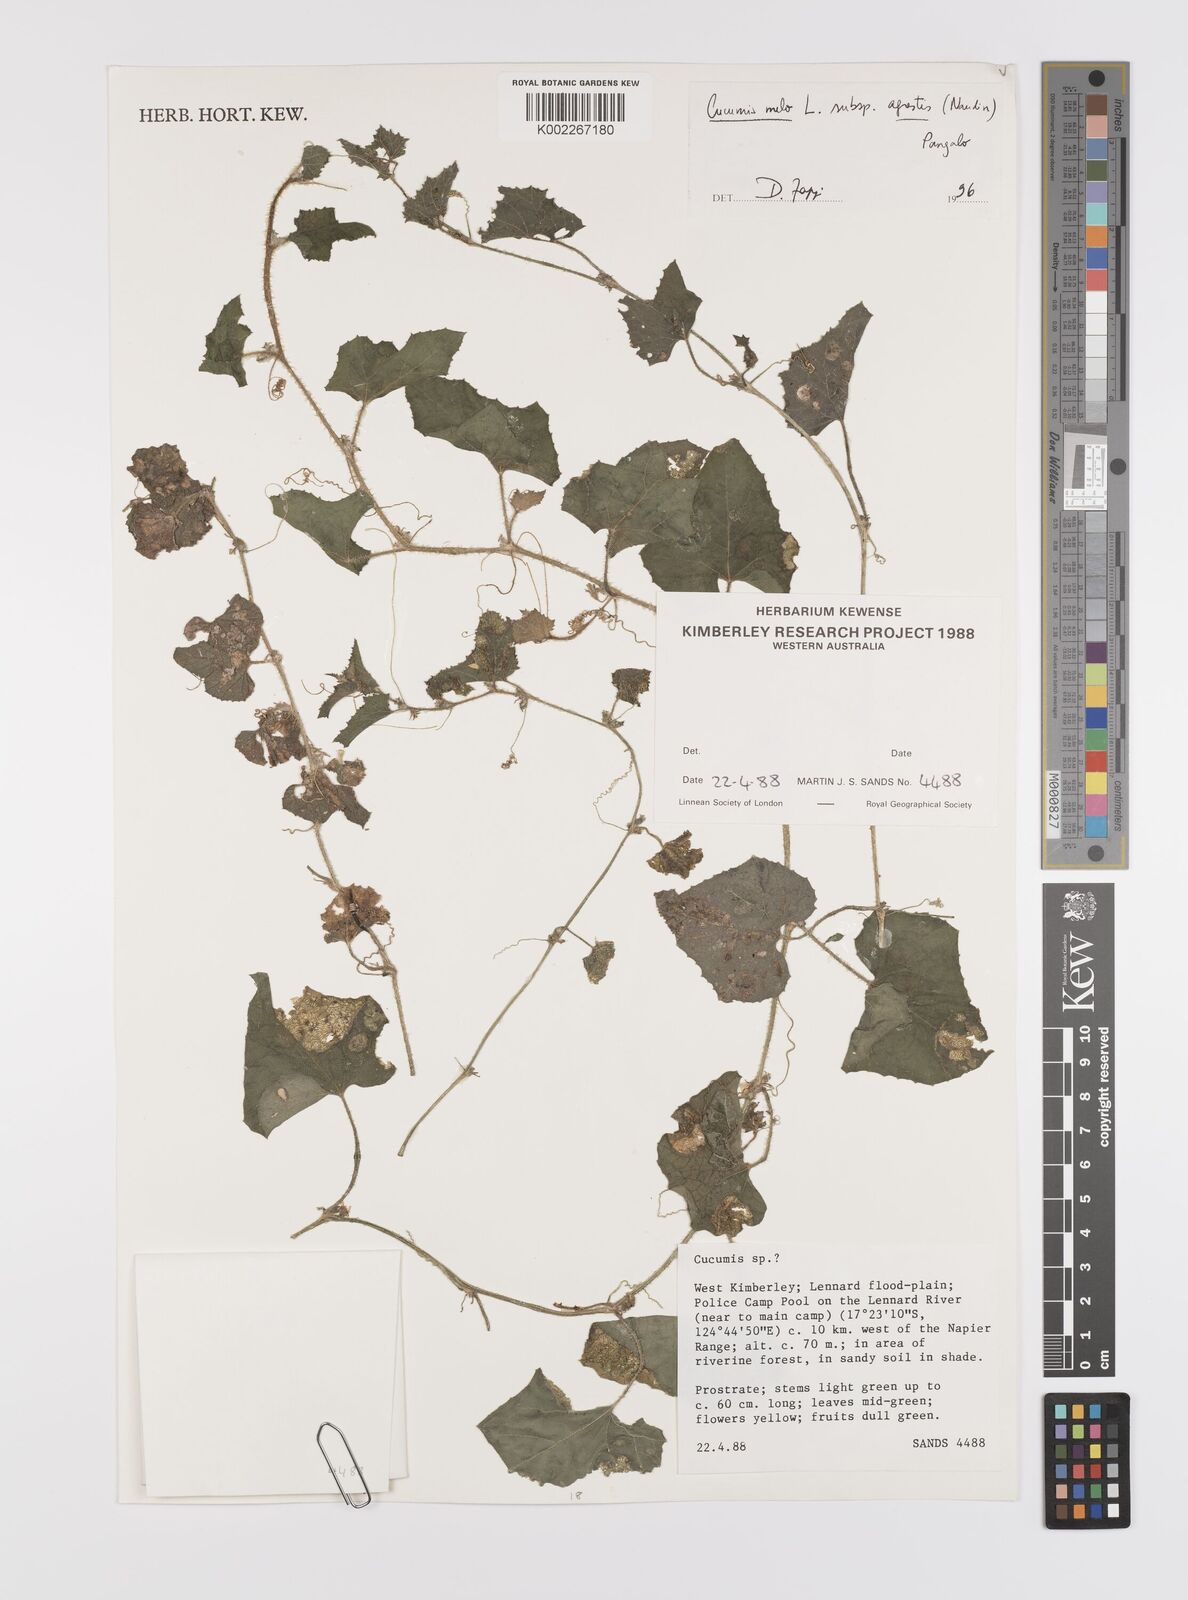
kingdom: Plantae
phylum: Tracheophyta
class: Magnoliopsida
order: Cucurbitales
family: Cucurbitaceae
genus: Cucumis
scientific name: Cucumis melo
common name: Melon
